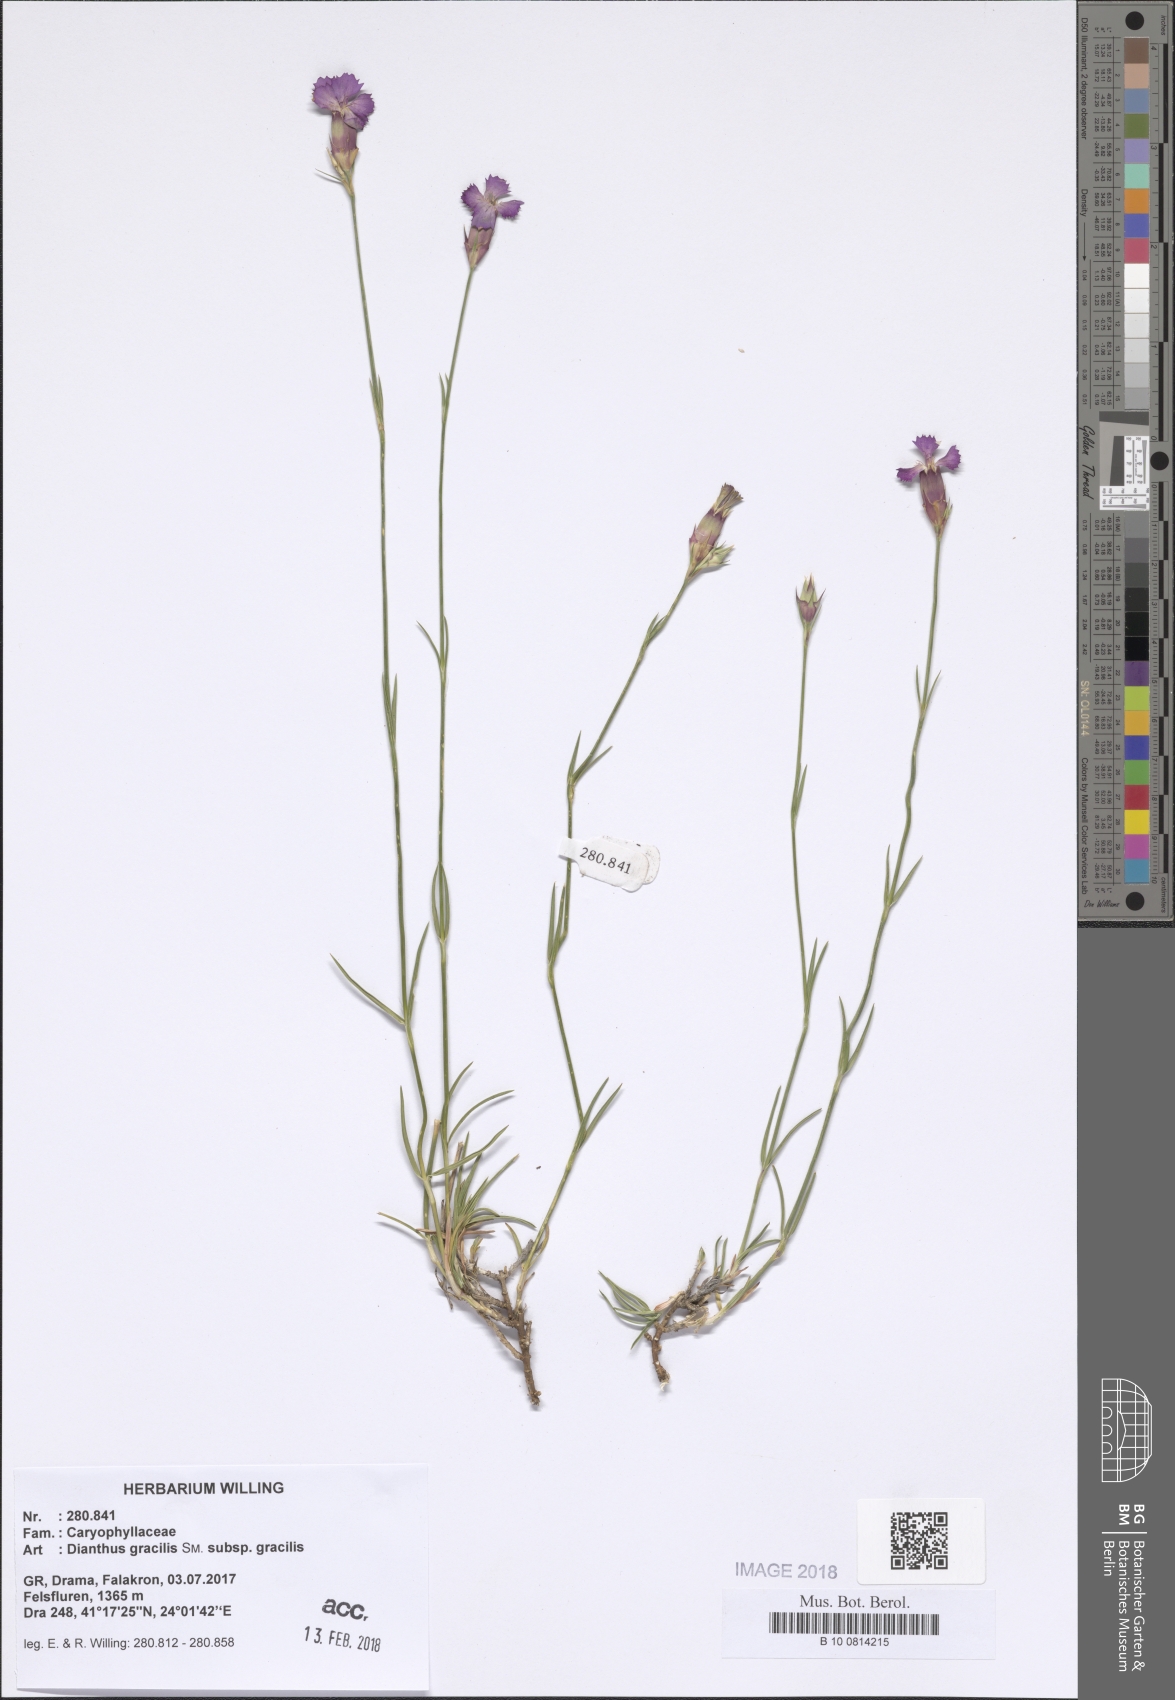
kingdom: Plantae
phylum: Tracheophyta
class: Magnoliopsida
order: Caryophyllales
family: Caryophyllaceae
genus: Dianthus
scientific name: Dianthus gracilis
